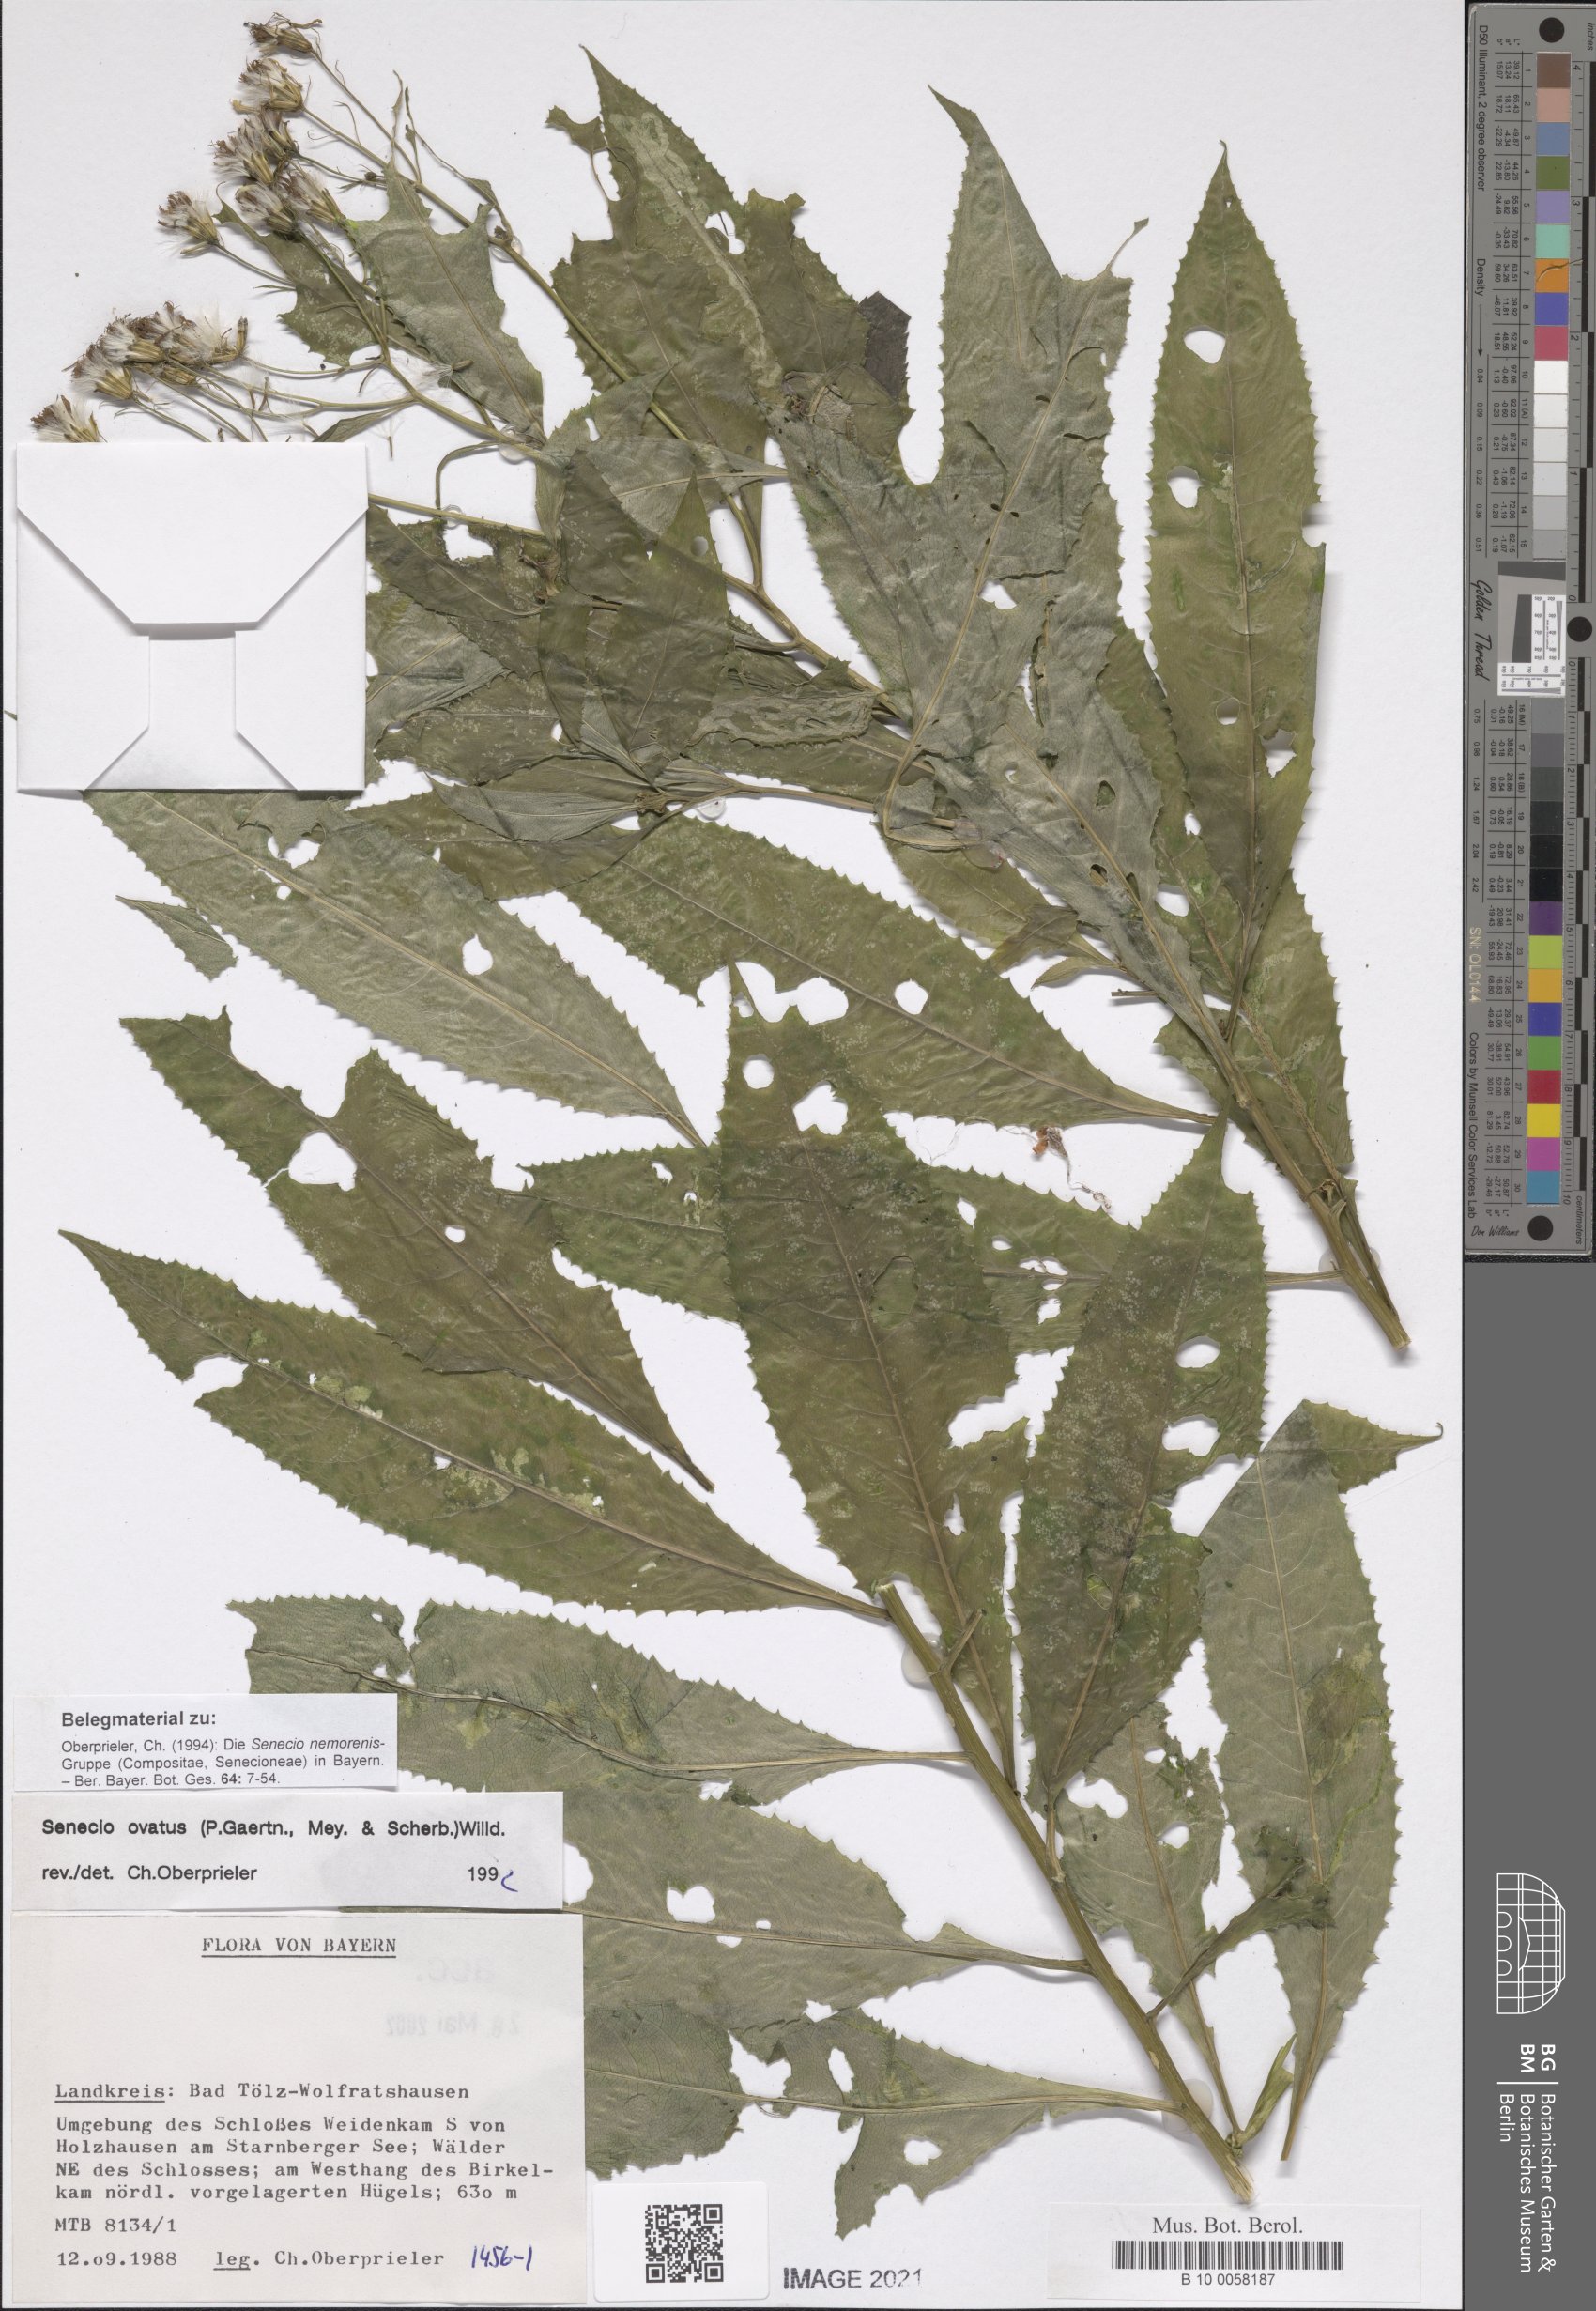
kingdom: Plantae
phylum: Tracheophyta
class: Magnoliopsida
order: Asterales
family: Asteraceae
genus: Senecio
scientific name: Senecio ovatus
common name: Wood ragwort
